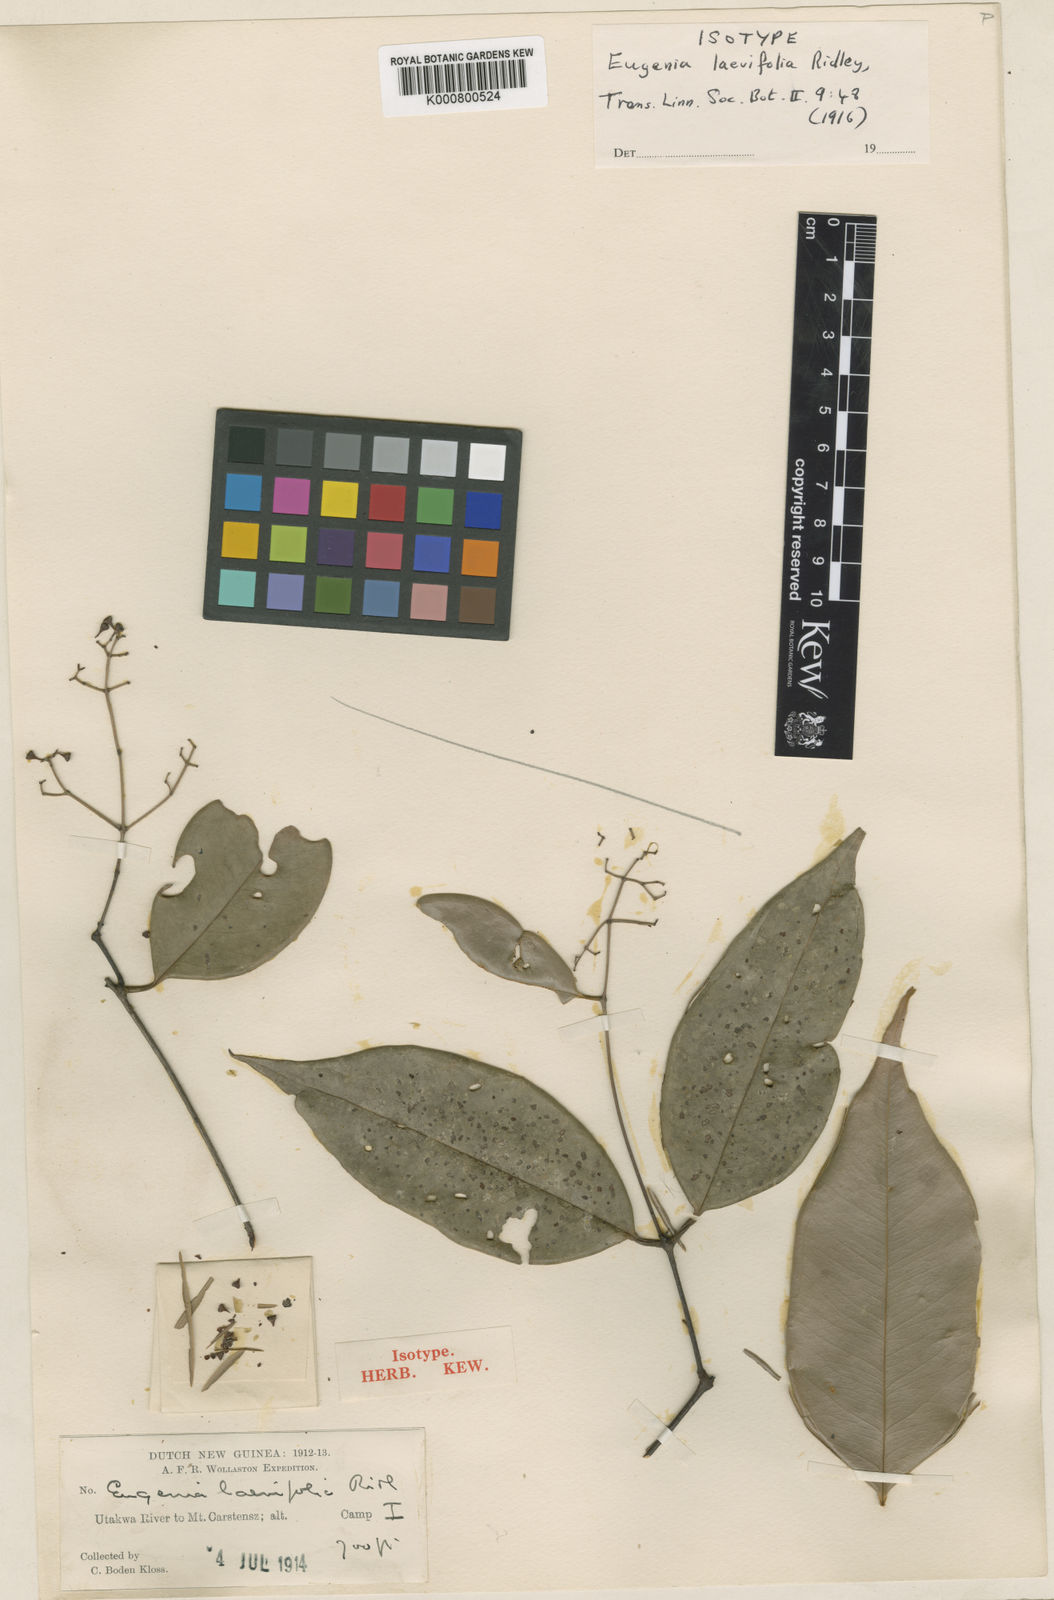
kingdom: Plantae
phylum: Tracheophyta
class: Magnoliopsida
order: Myrtales
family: Myrtaceae
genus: Syzygium
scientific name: Syzygium acuminatissimum
